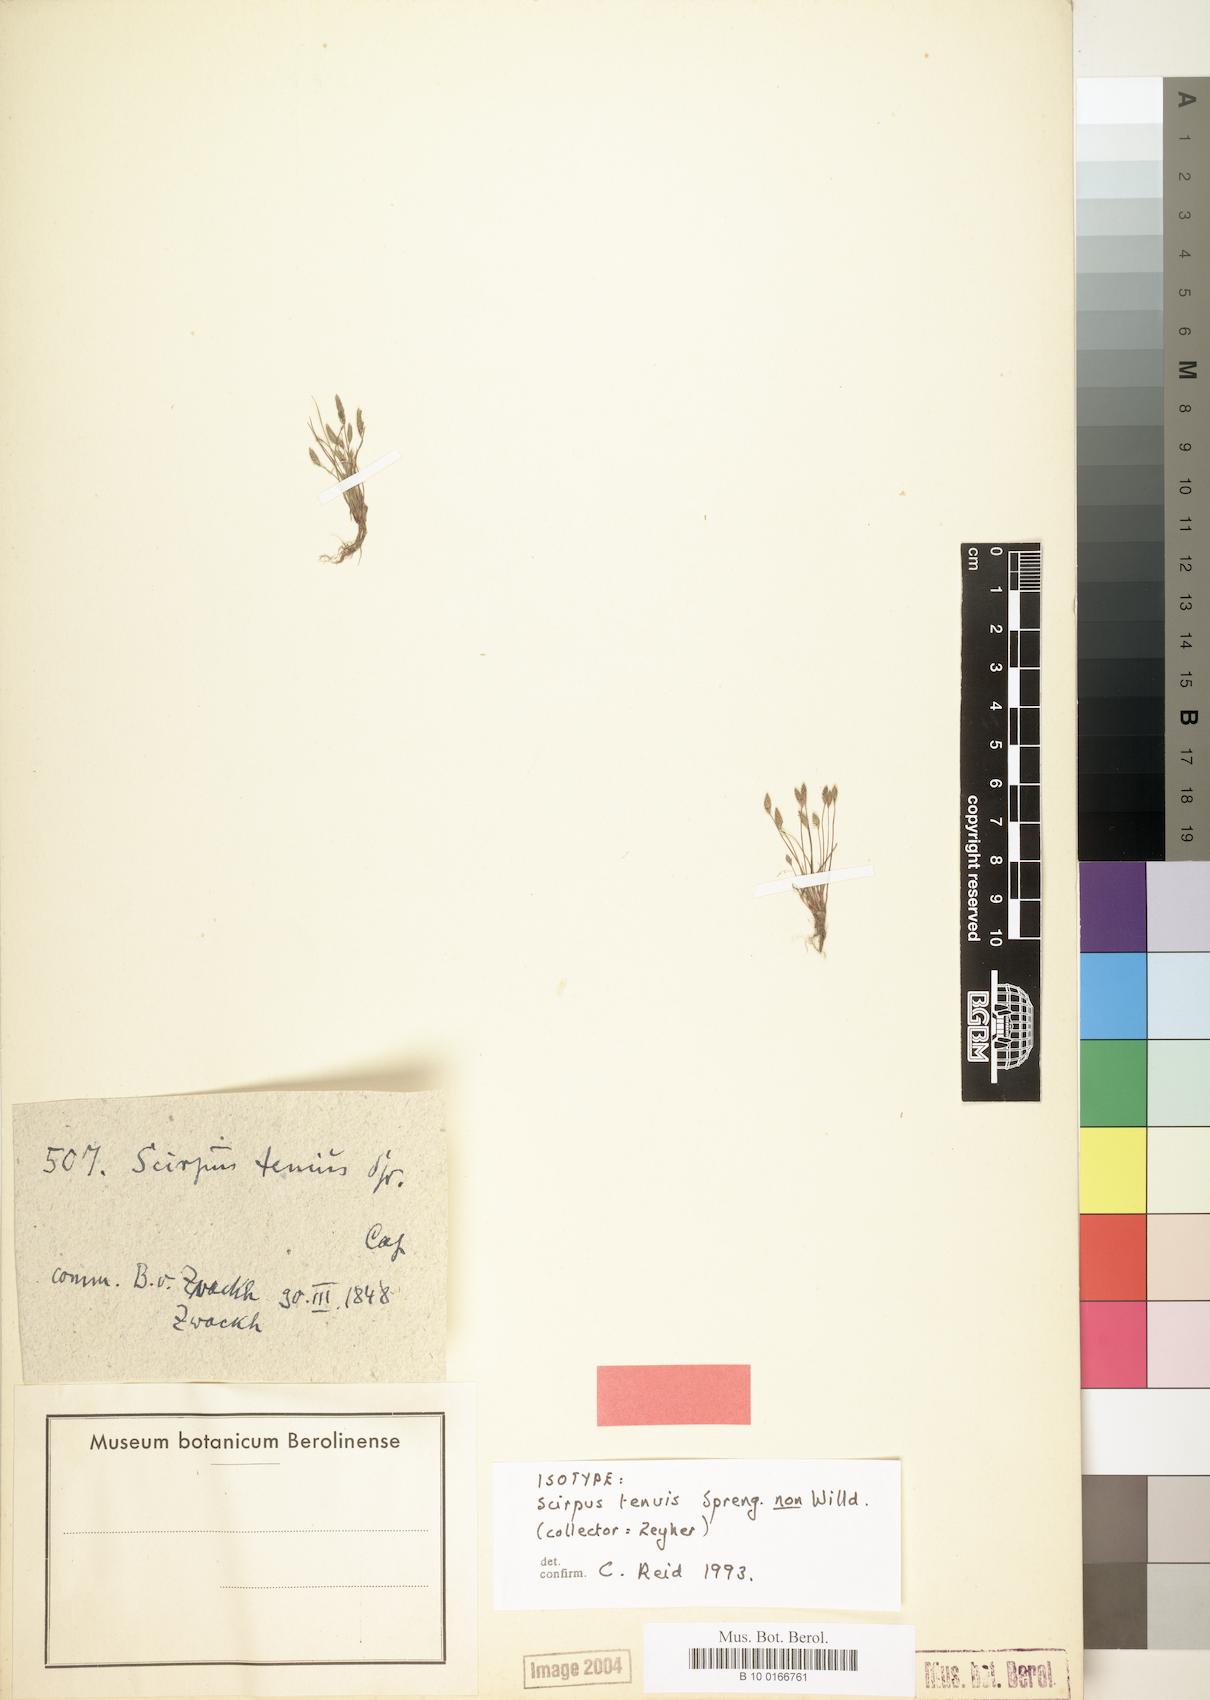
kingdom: Plantae
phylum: Tracheophyta
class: Liliopsida
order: Poales
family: Cyperaceae
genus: Isolepis
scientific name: Isolepis pusilla
